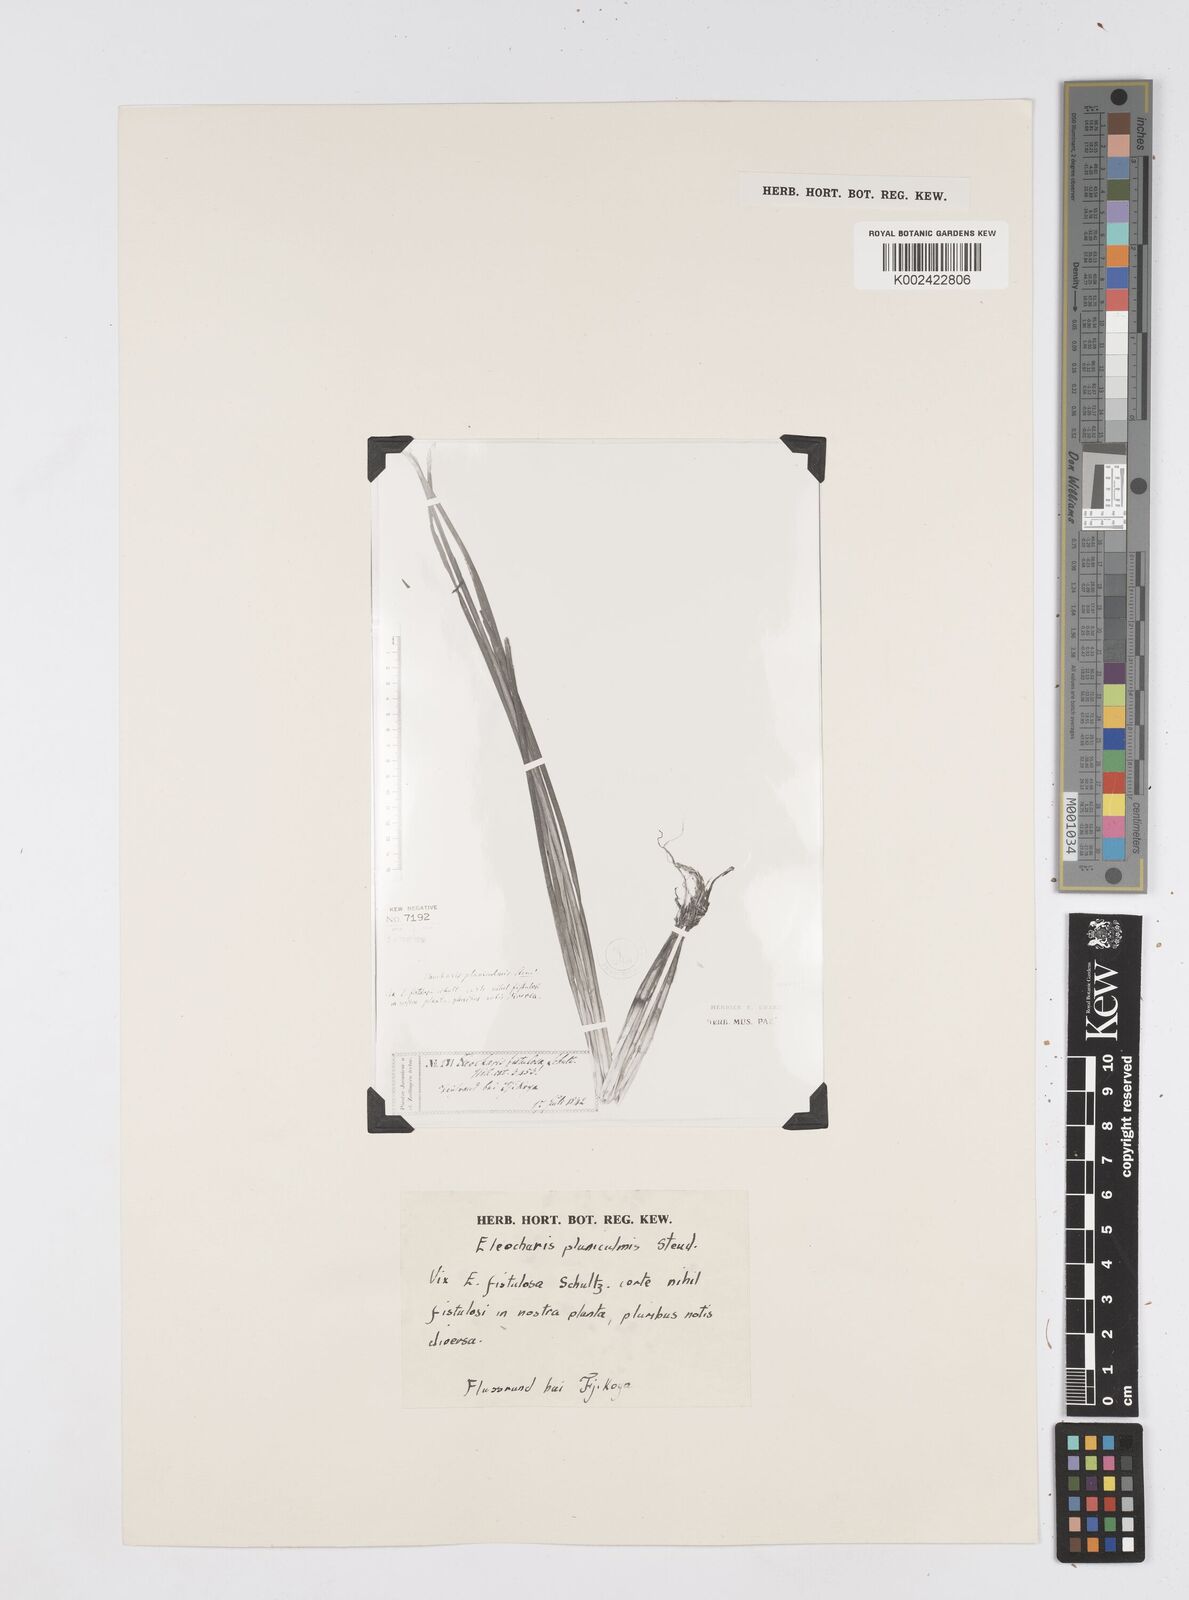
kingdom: Plantae
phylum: Tracheophyta
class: Liliopsida
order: Poales
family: Cyperaceae
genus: Eleocharis
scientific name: Eleocharis acutangula
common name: Acute spikerush
